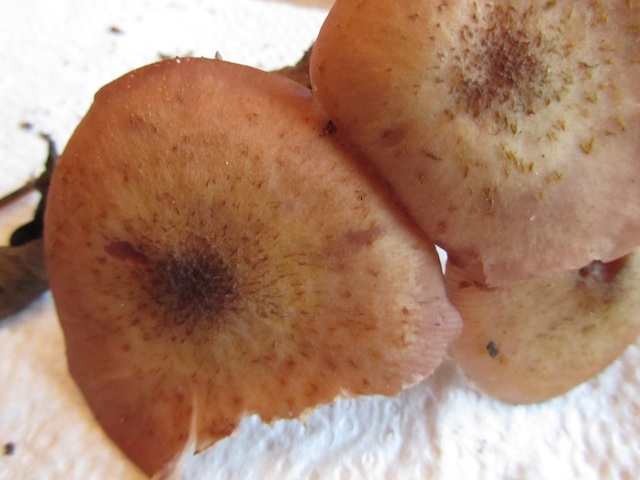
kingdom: Fungi
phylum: Basidiomycota
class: Agaricomycetes
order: Agaricales
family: Physalacriaceae
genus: Armillaria
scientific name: Armillaria lutea
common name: køllestokket honningsvamp
